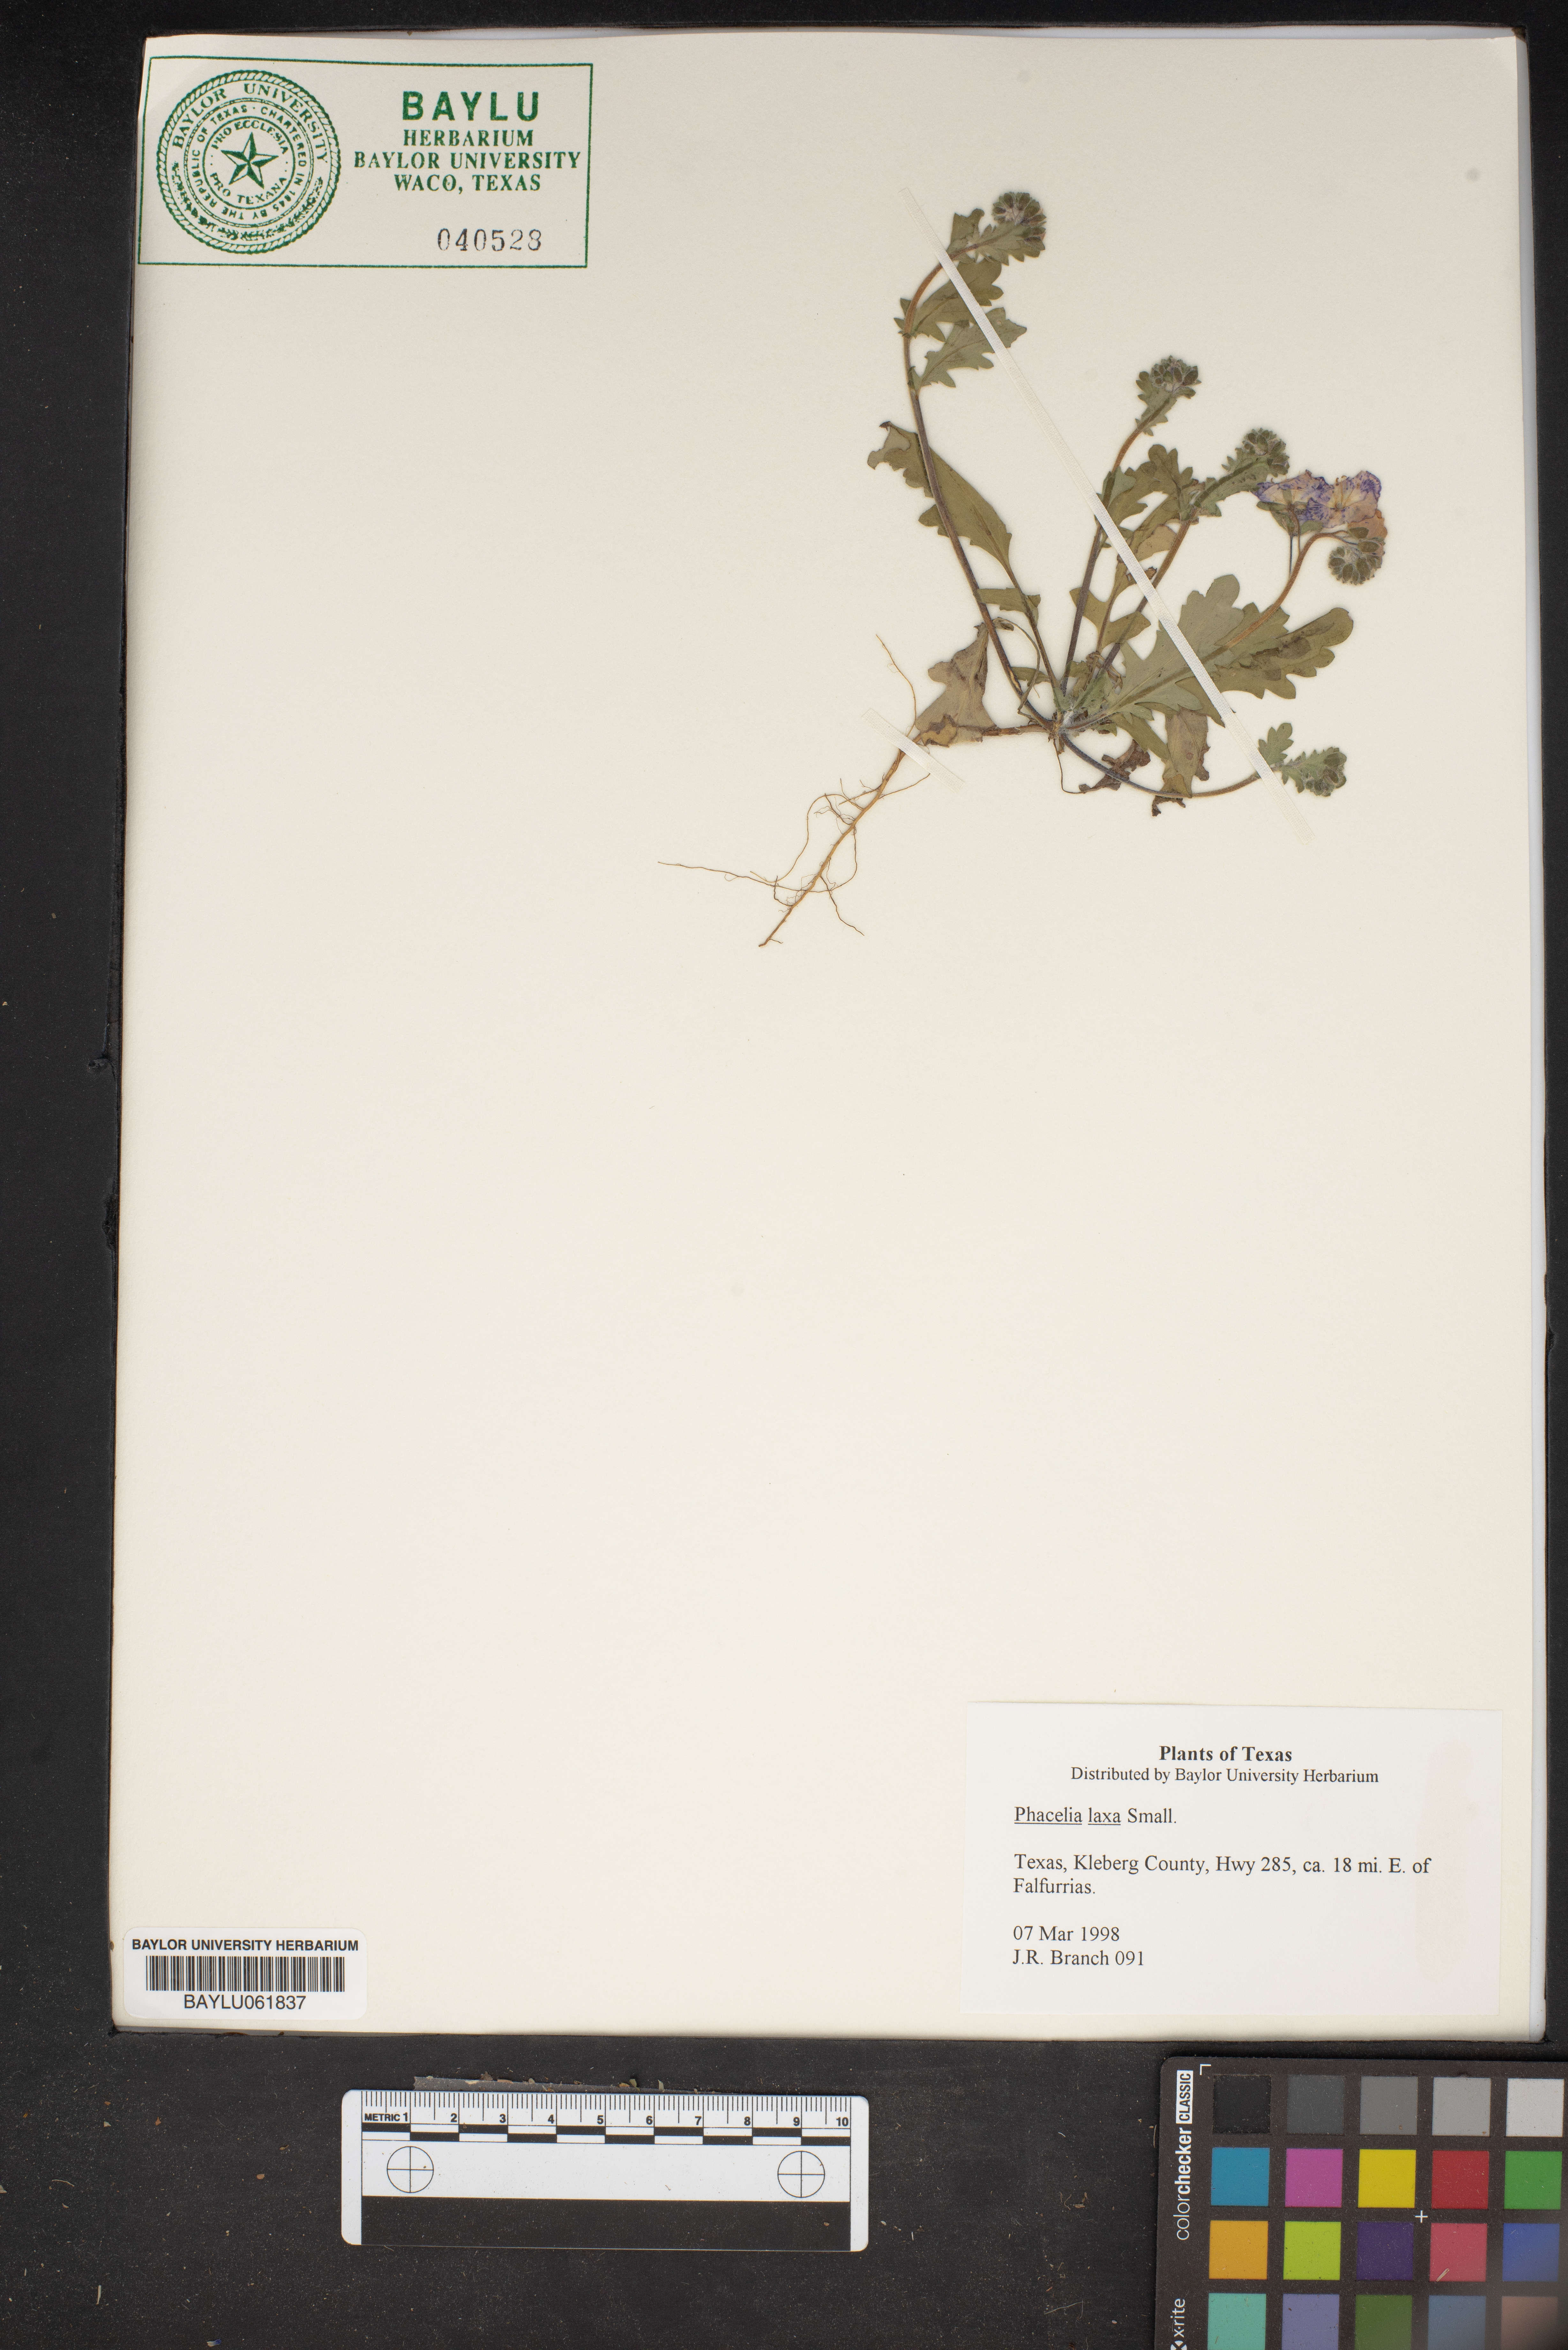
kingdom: Plantae
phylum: Tracheophyta
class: Magnoliopsida
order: Boraginales
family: Hydrophyllaceae
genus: Phacelia
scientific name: Phacelia laxa
